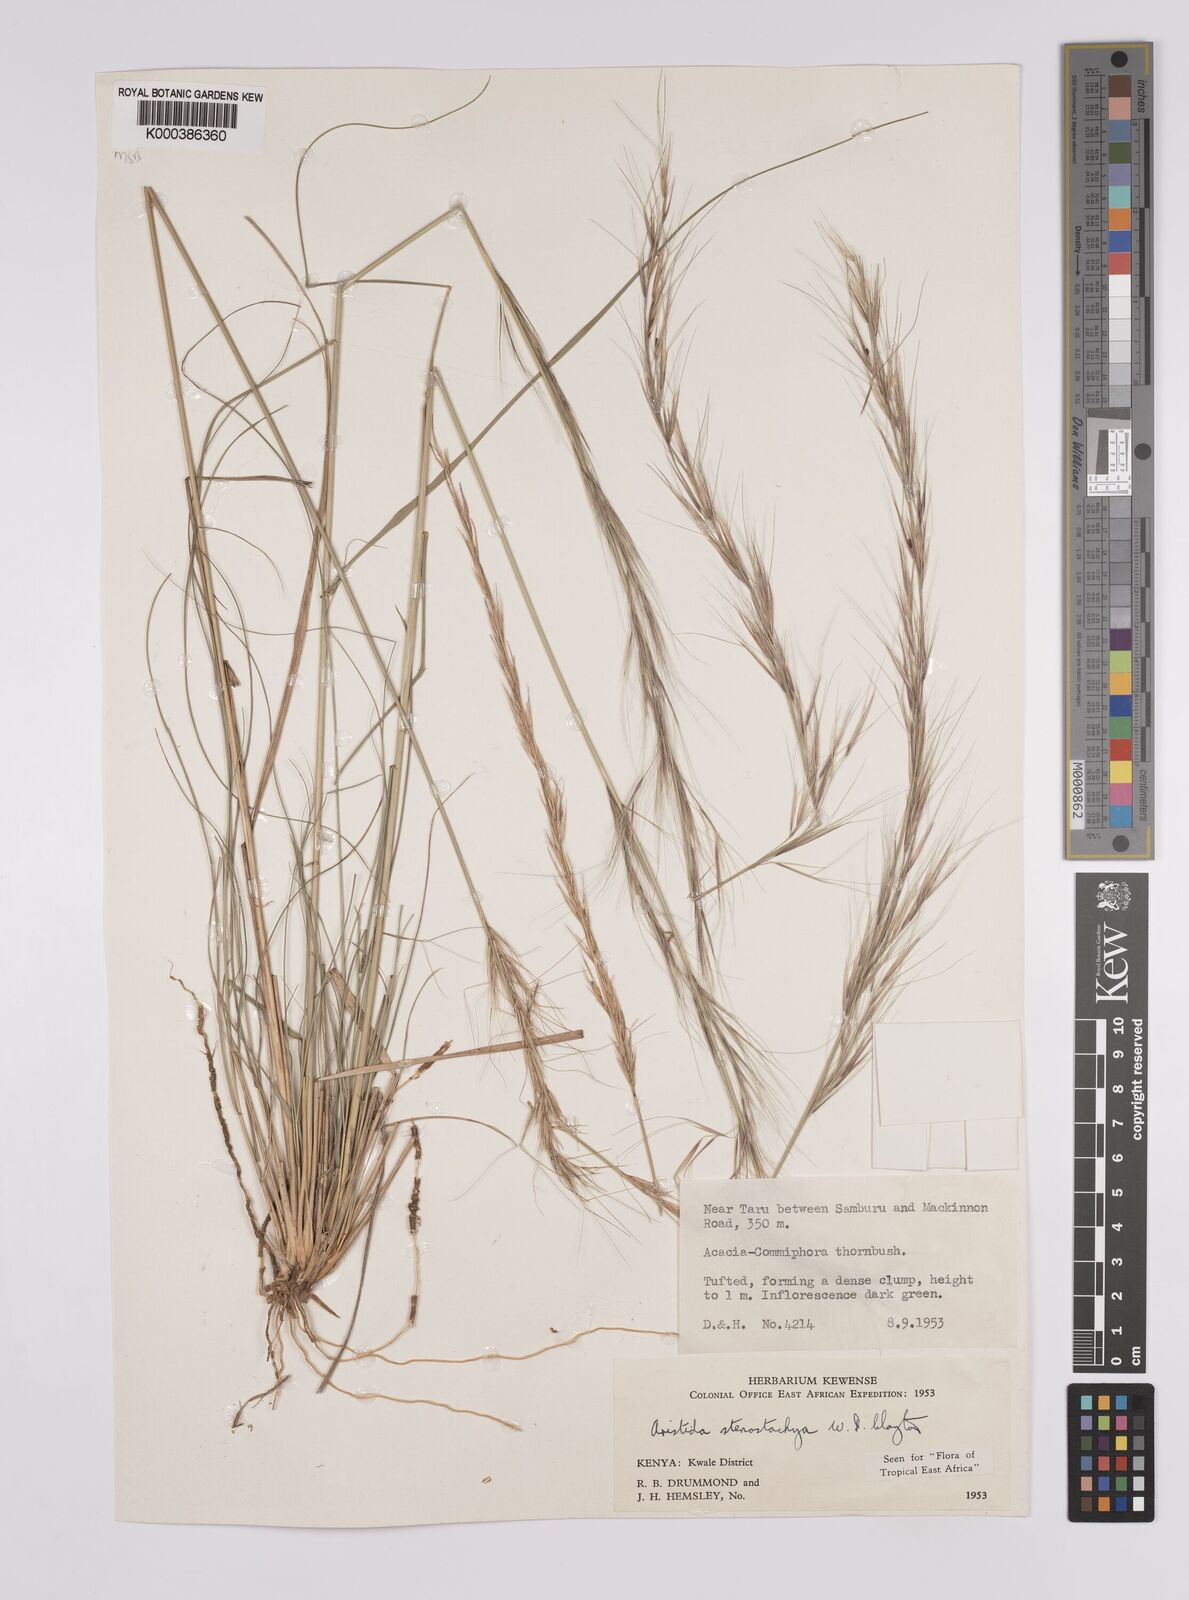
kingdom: Plantae
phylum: Tracheophyta
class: Liliopsida
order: Poales
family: Poaceae
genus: Aristida
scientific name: Aristida stenostachya
